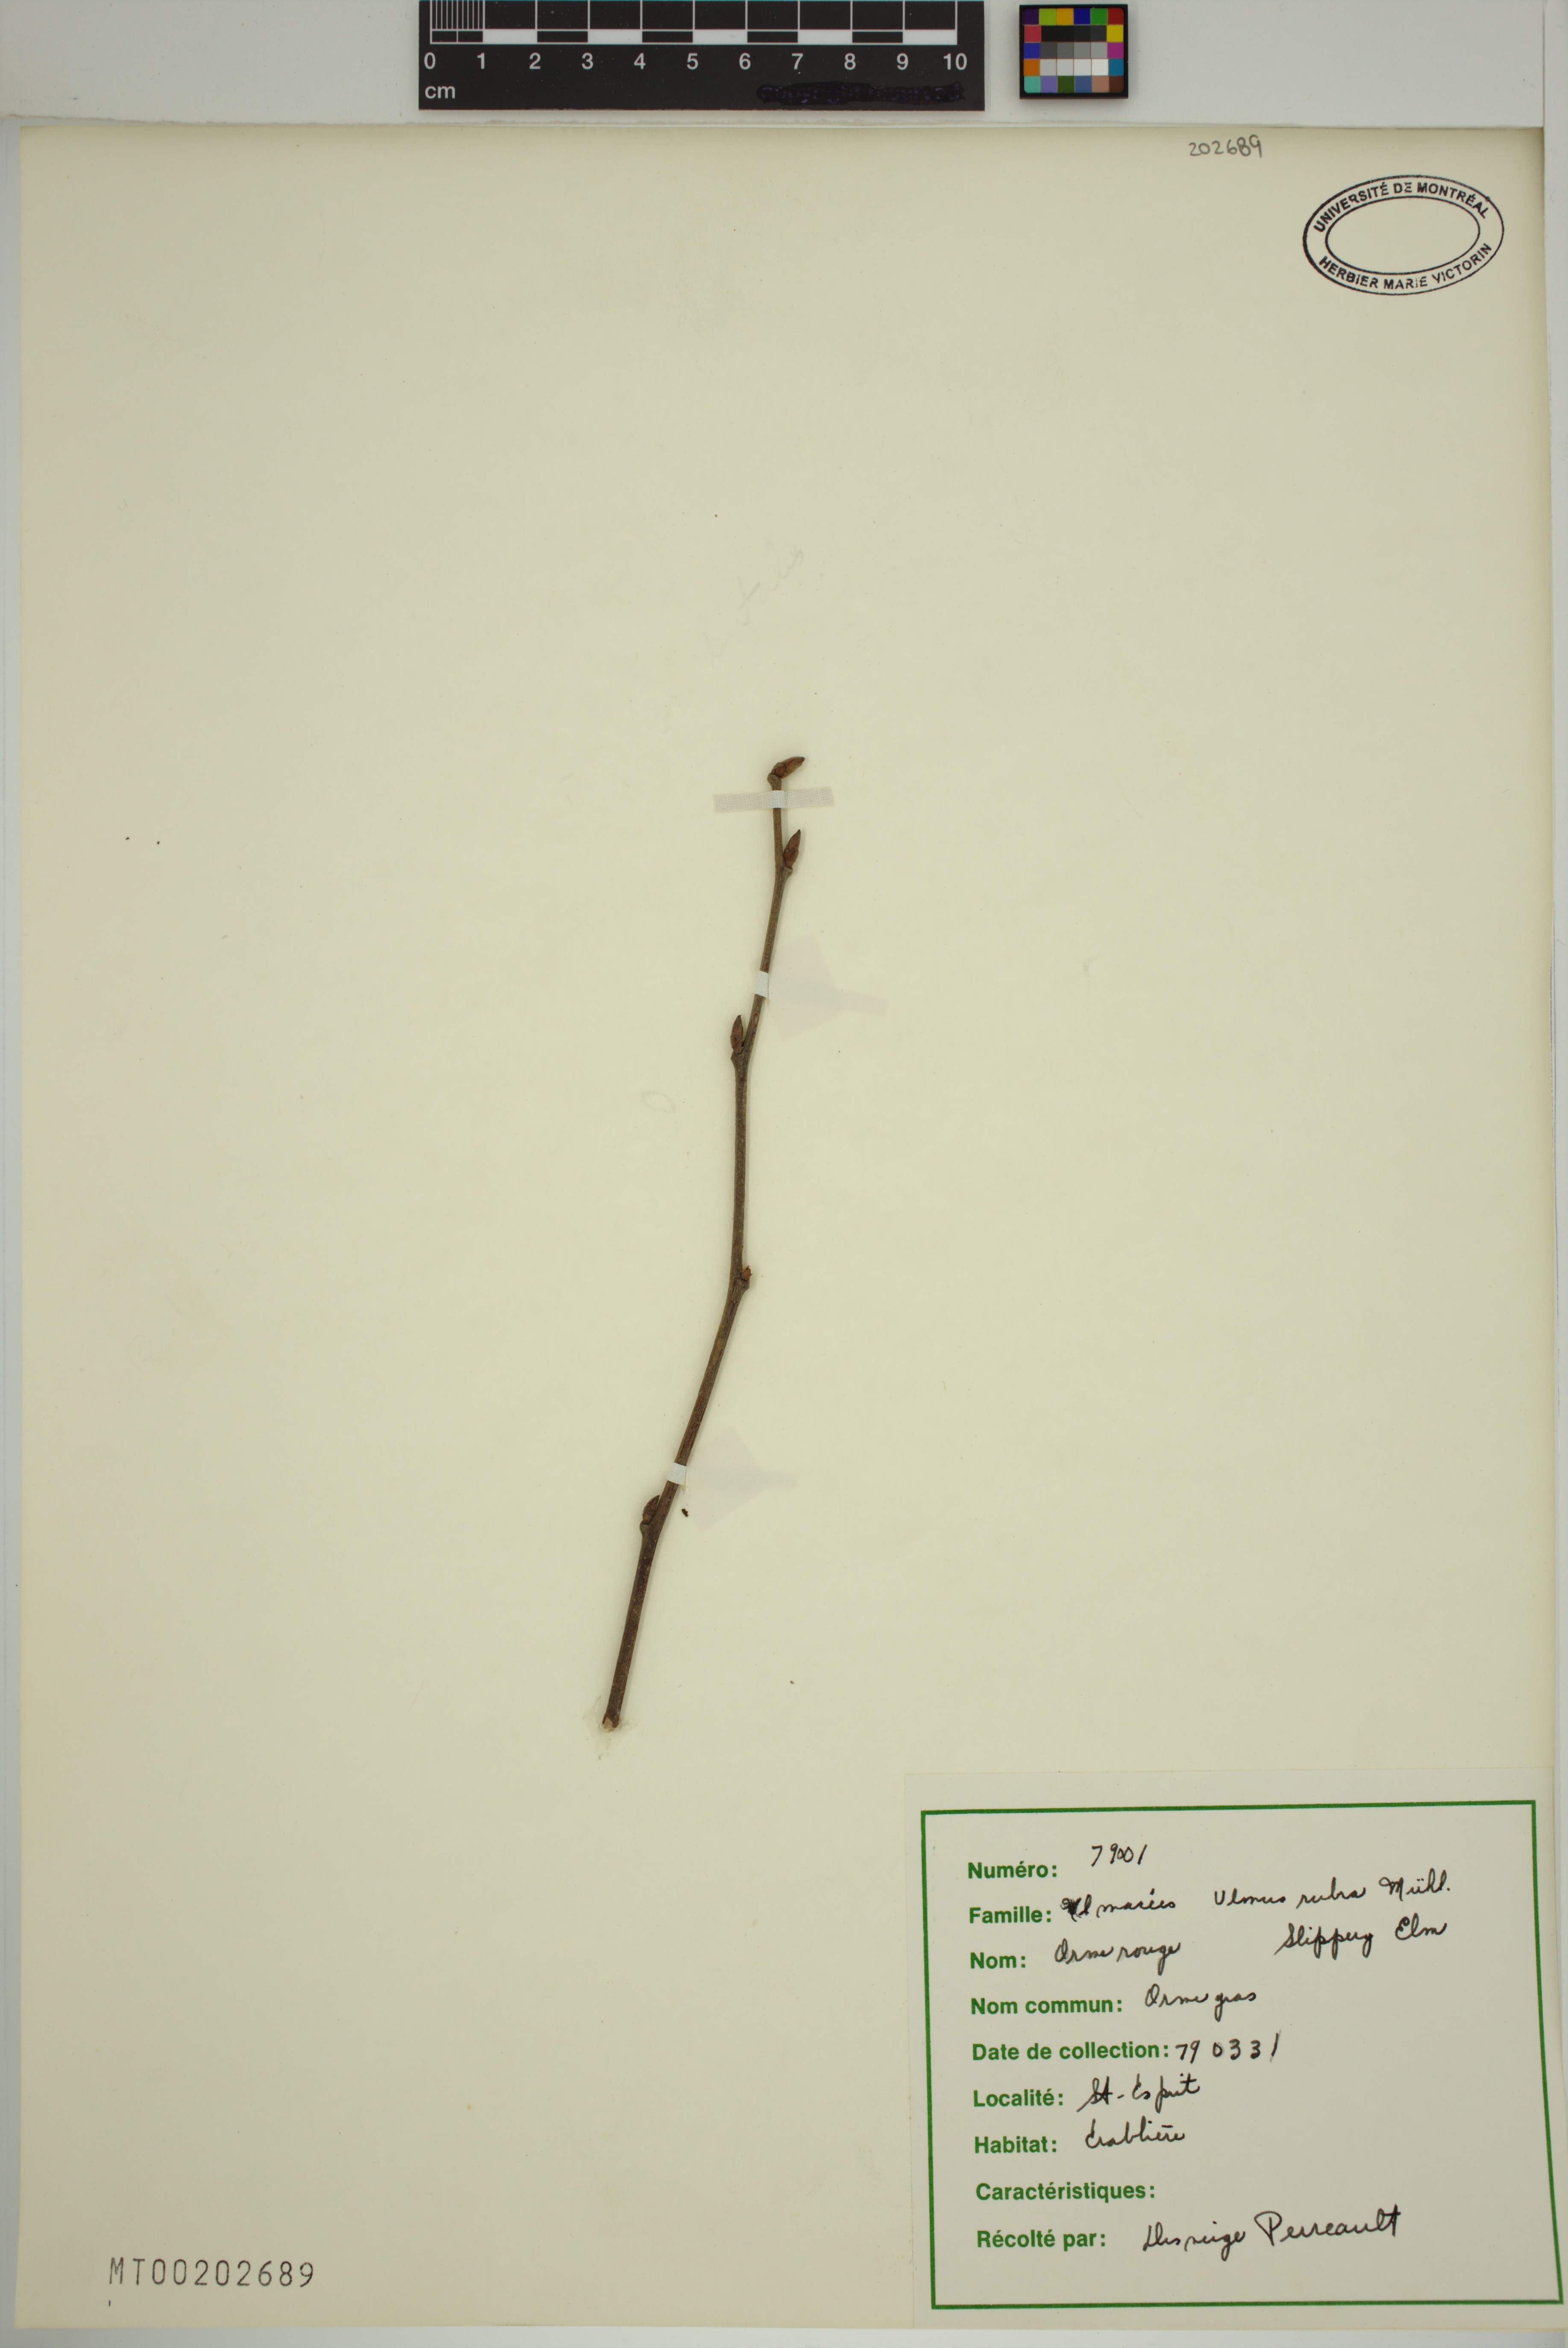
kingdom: Plantae
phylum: Tracheophyta
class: Magnoliopsida
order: Rosales
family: Ulmaceae
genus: Ulmus
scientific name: Ulmus rubra
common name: Slippery elm
